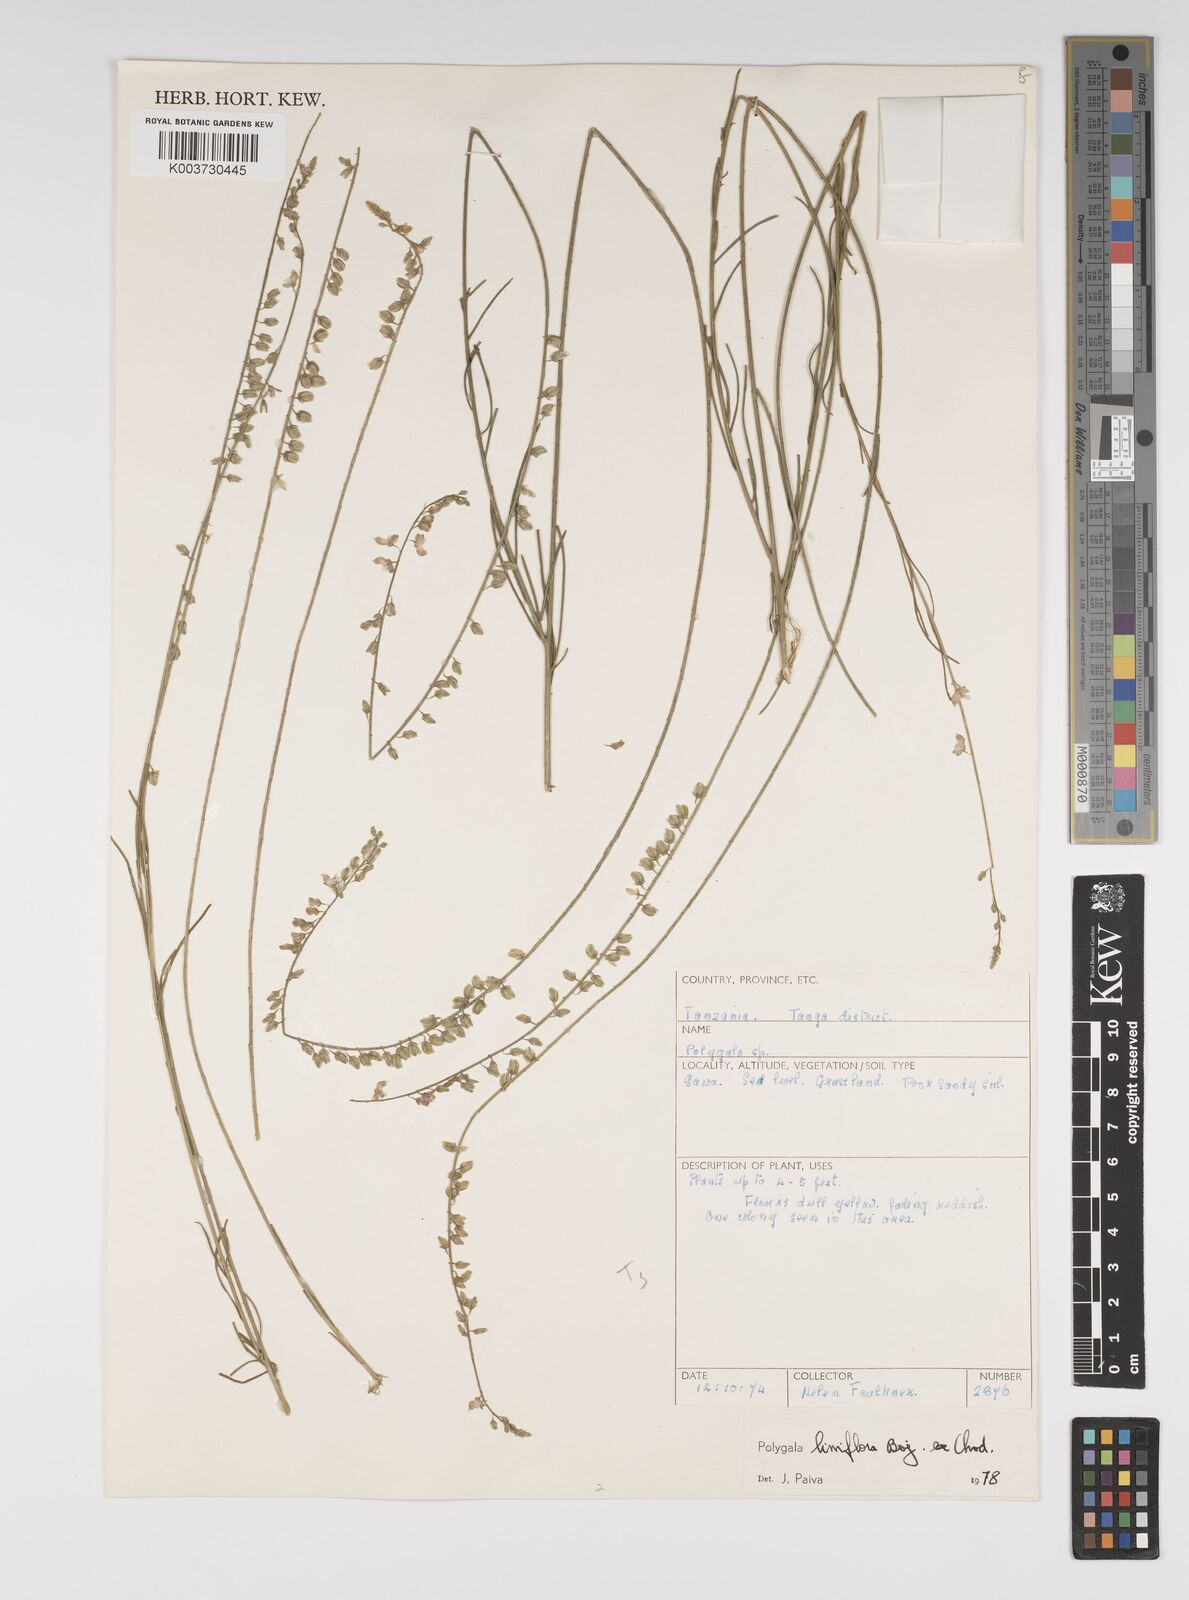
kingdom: Plantae
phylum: Tracheophyta
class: Magnoliopsida
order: Fabales
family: Polygalaceae
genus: Polygala
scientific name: Polygala conosperma
